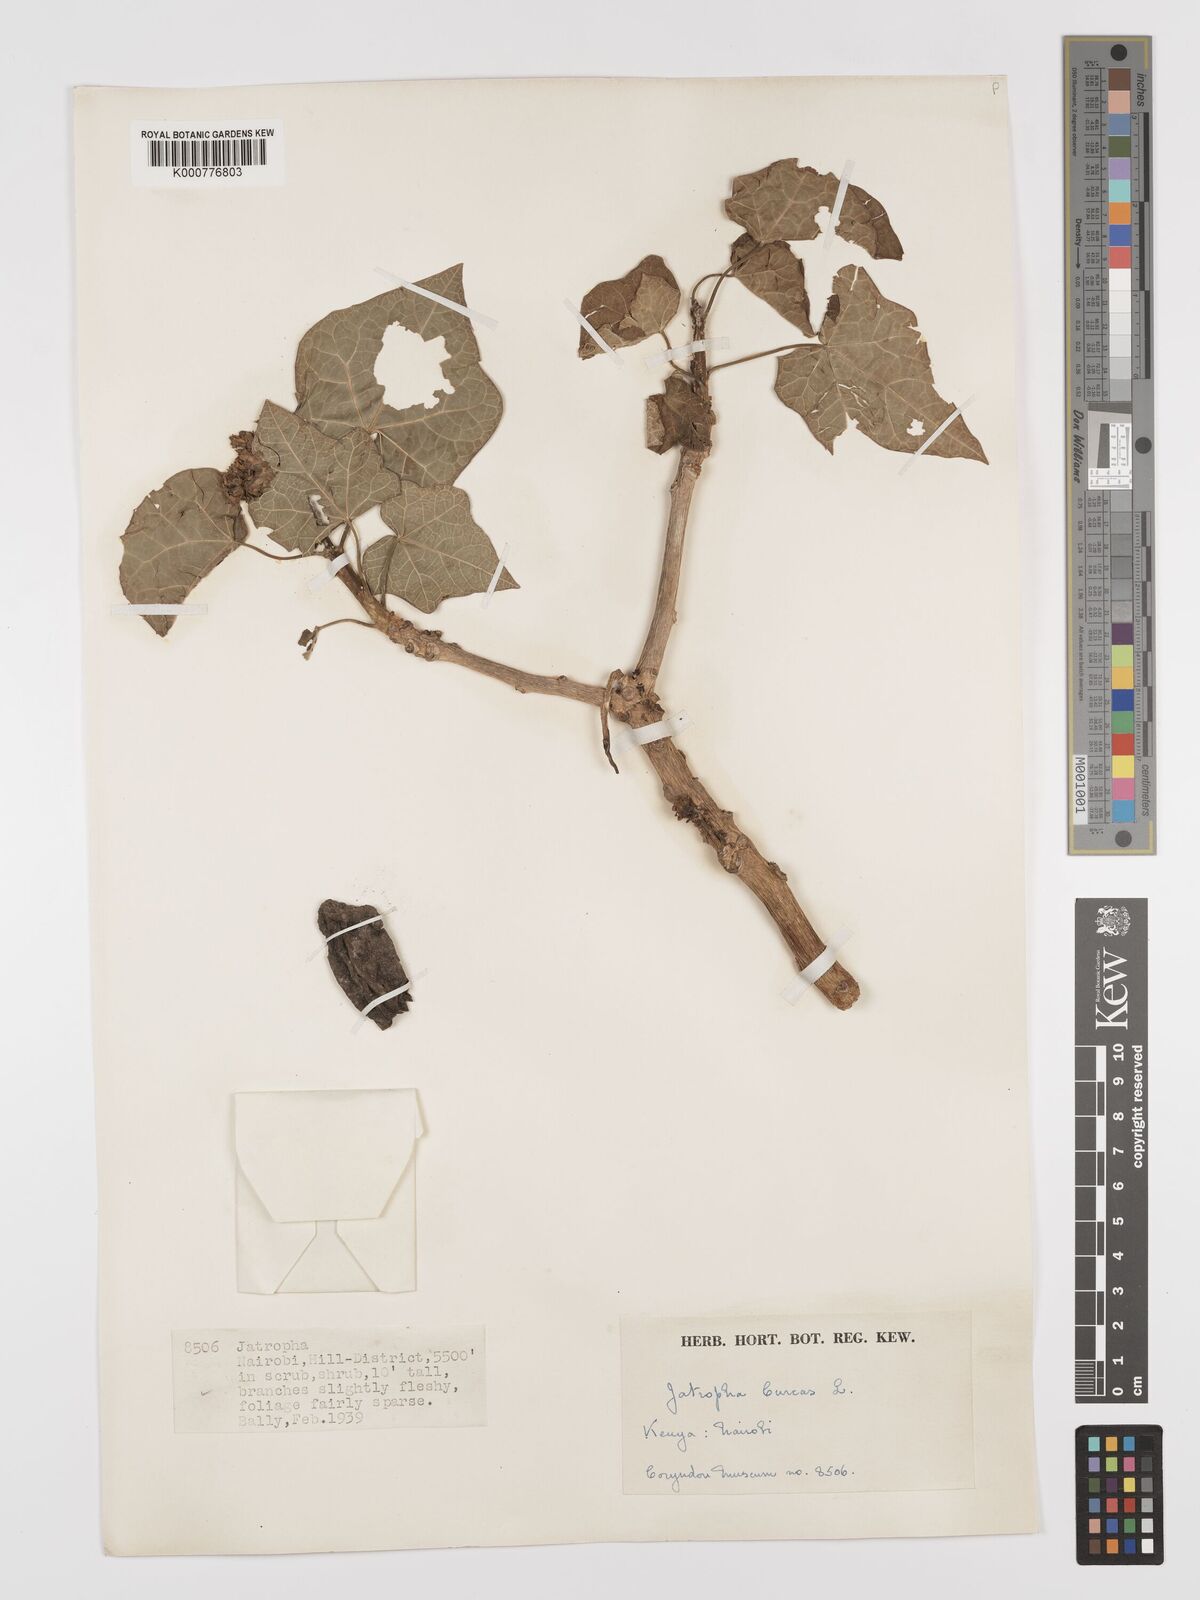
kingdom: Plantae
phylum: Tracheophyta
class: Magnoliopsida
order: Malpighiales
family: Euphorbiaceae
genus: Jatropha
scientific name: Jatropha curcas
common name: Barbados nut
